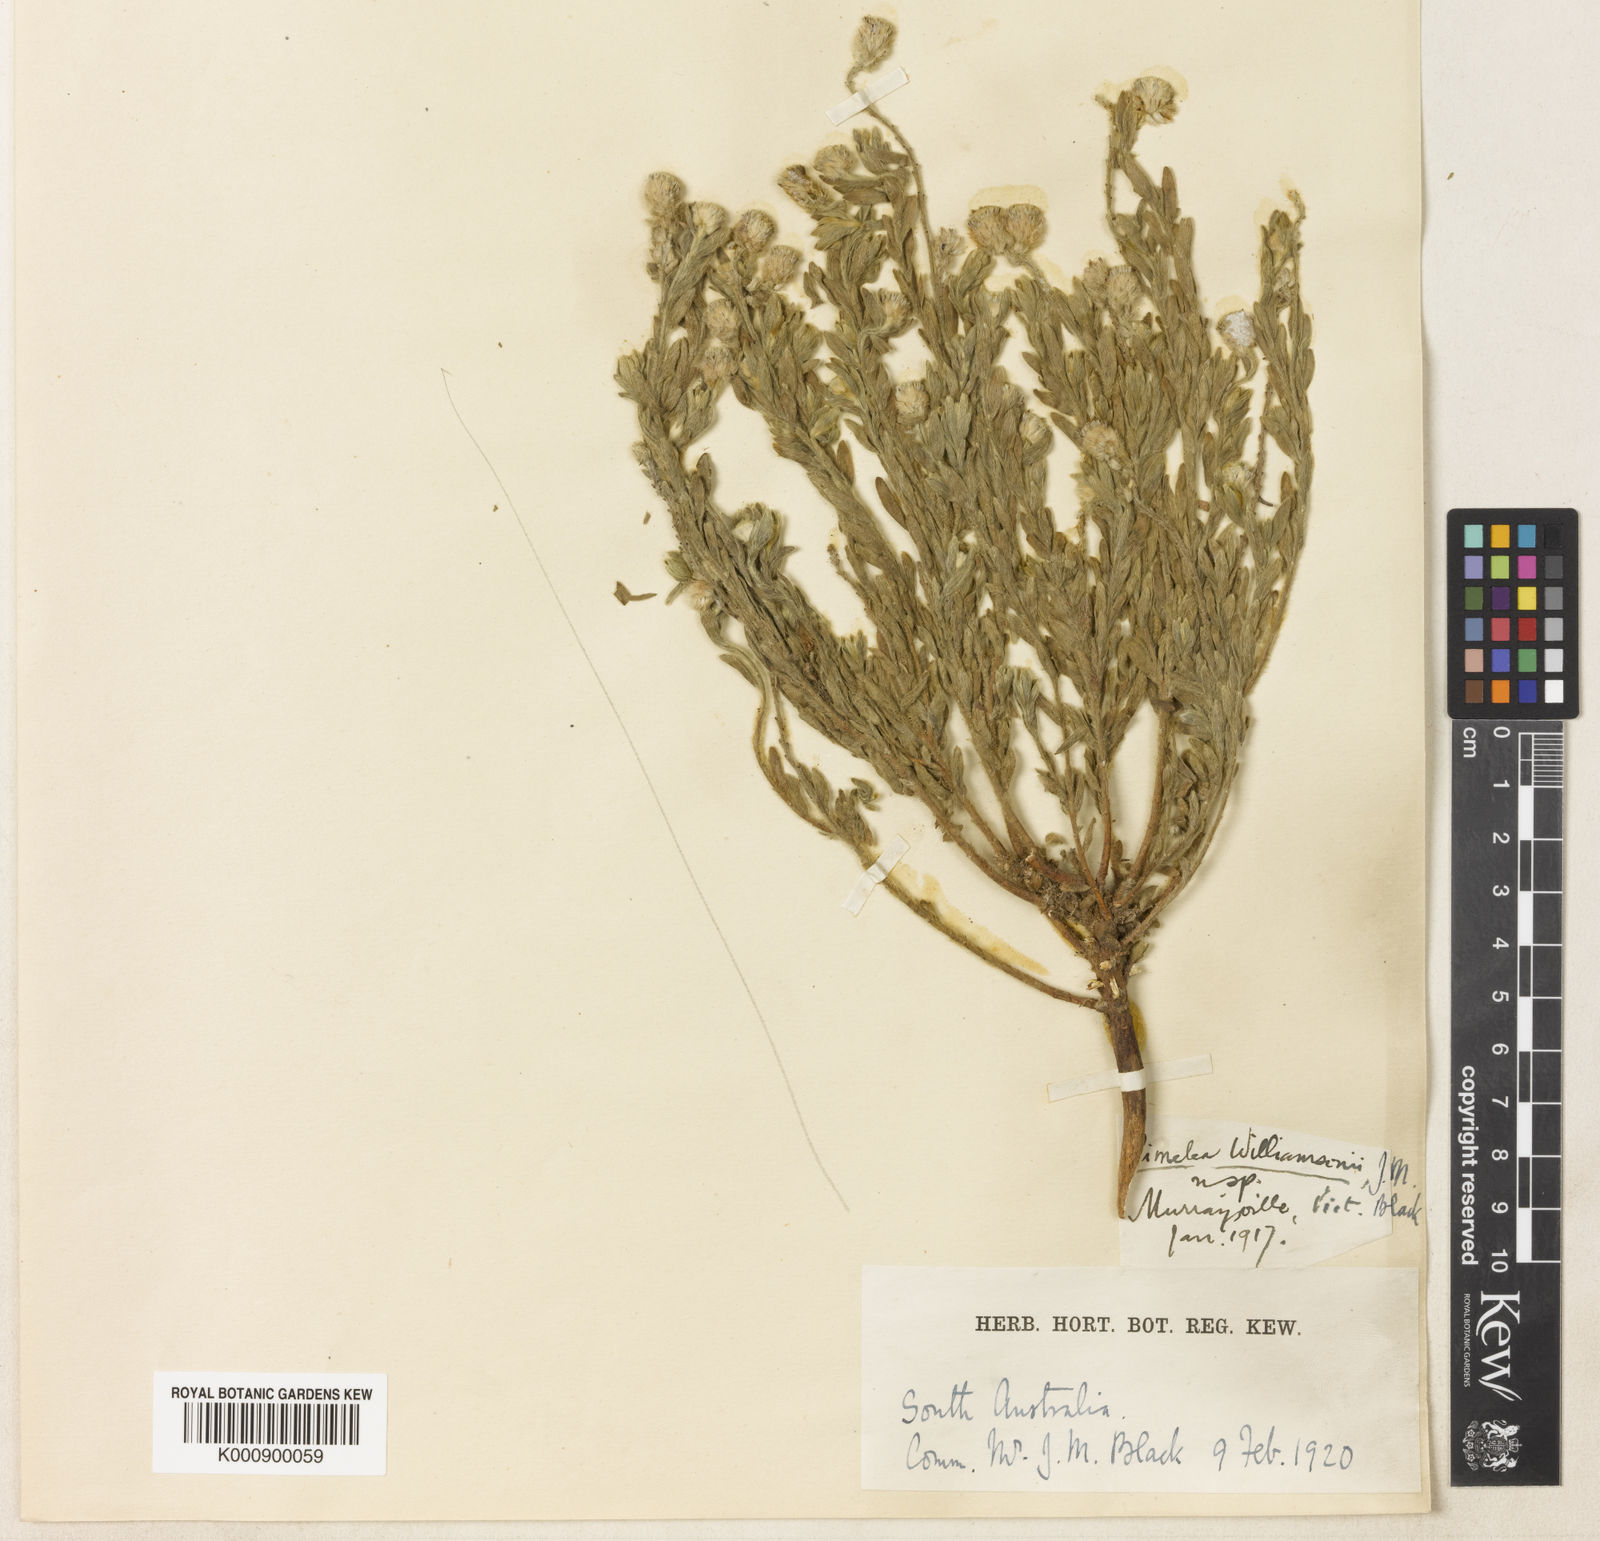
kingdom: Plantae
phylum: Tracheophyta
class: Magnoliopsida
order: Malvales
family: Thymelaeaceae
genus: Pimelea
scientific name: Pimelea williamsonii
